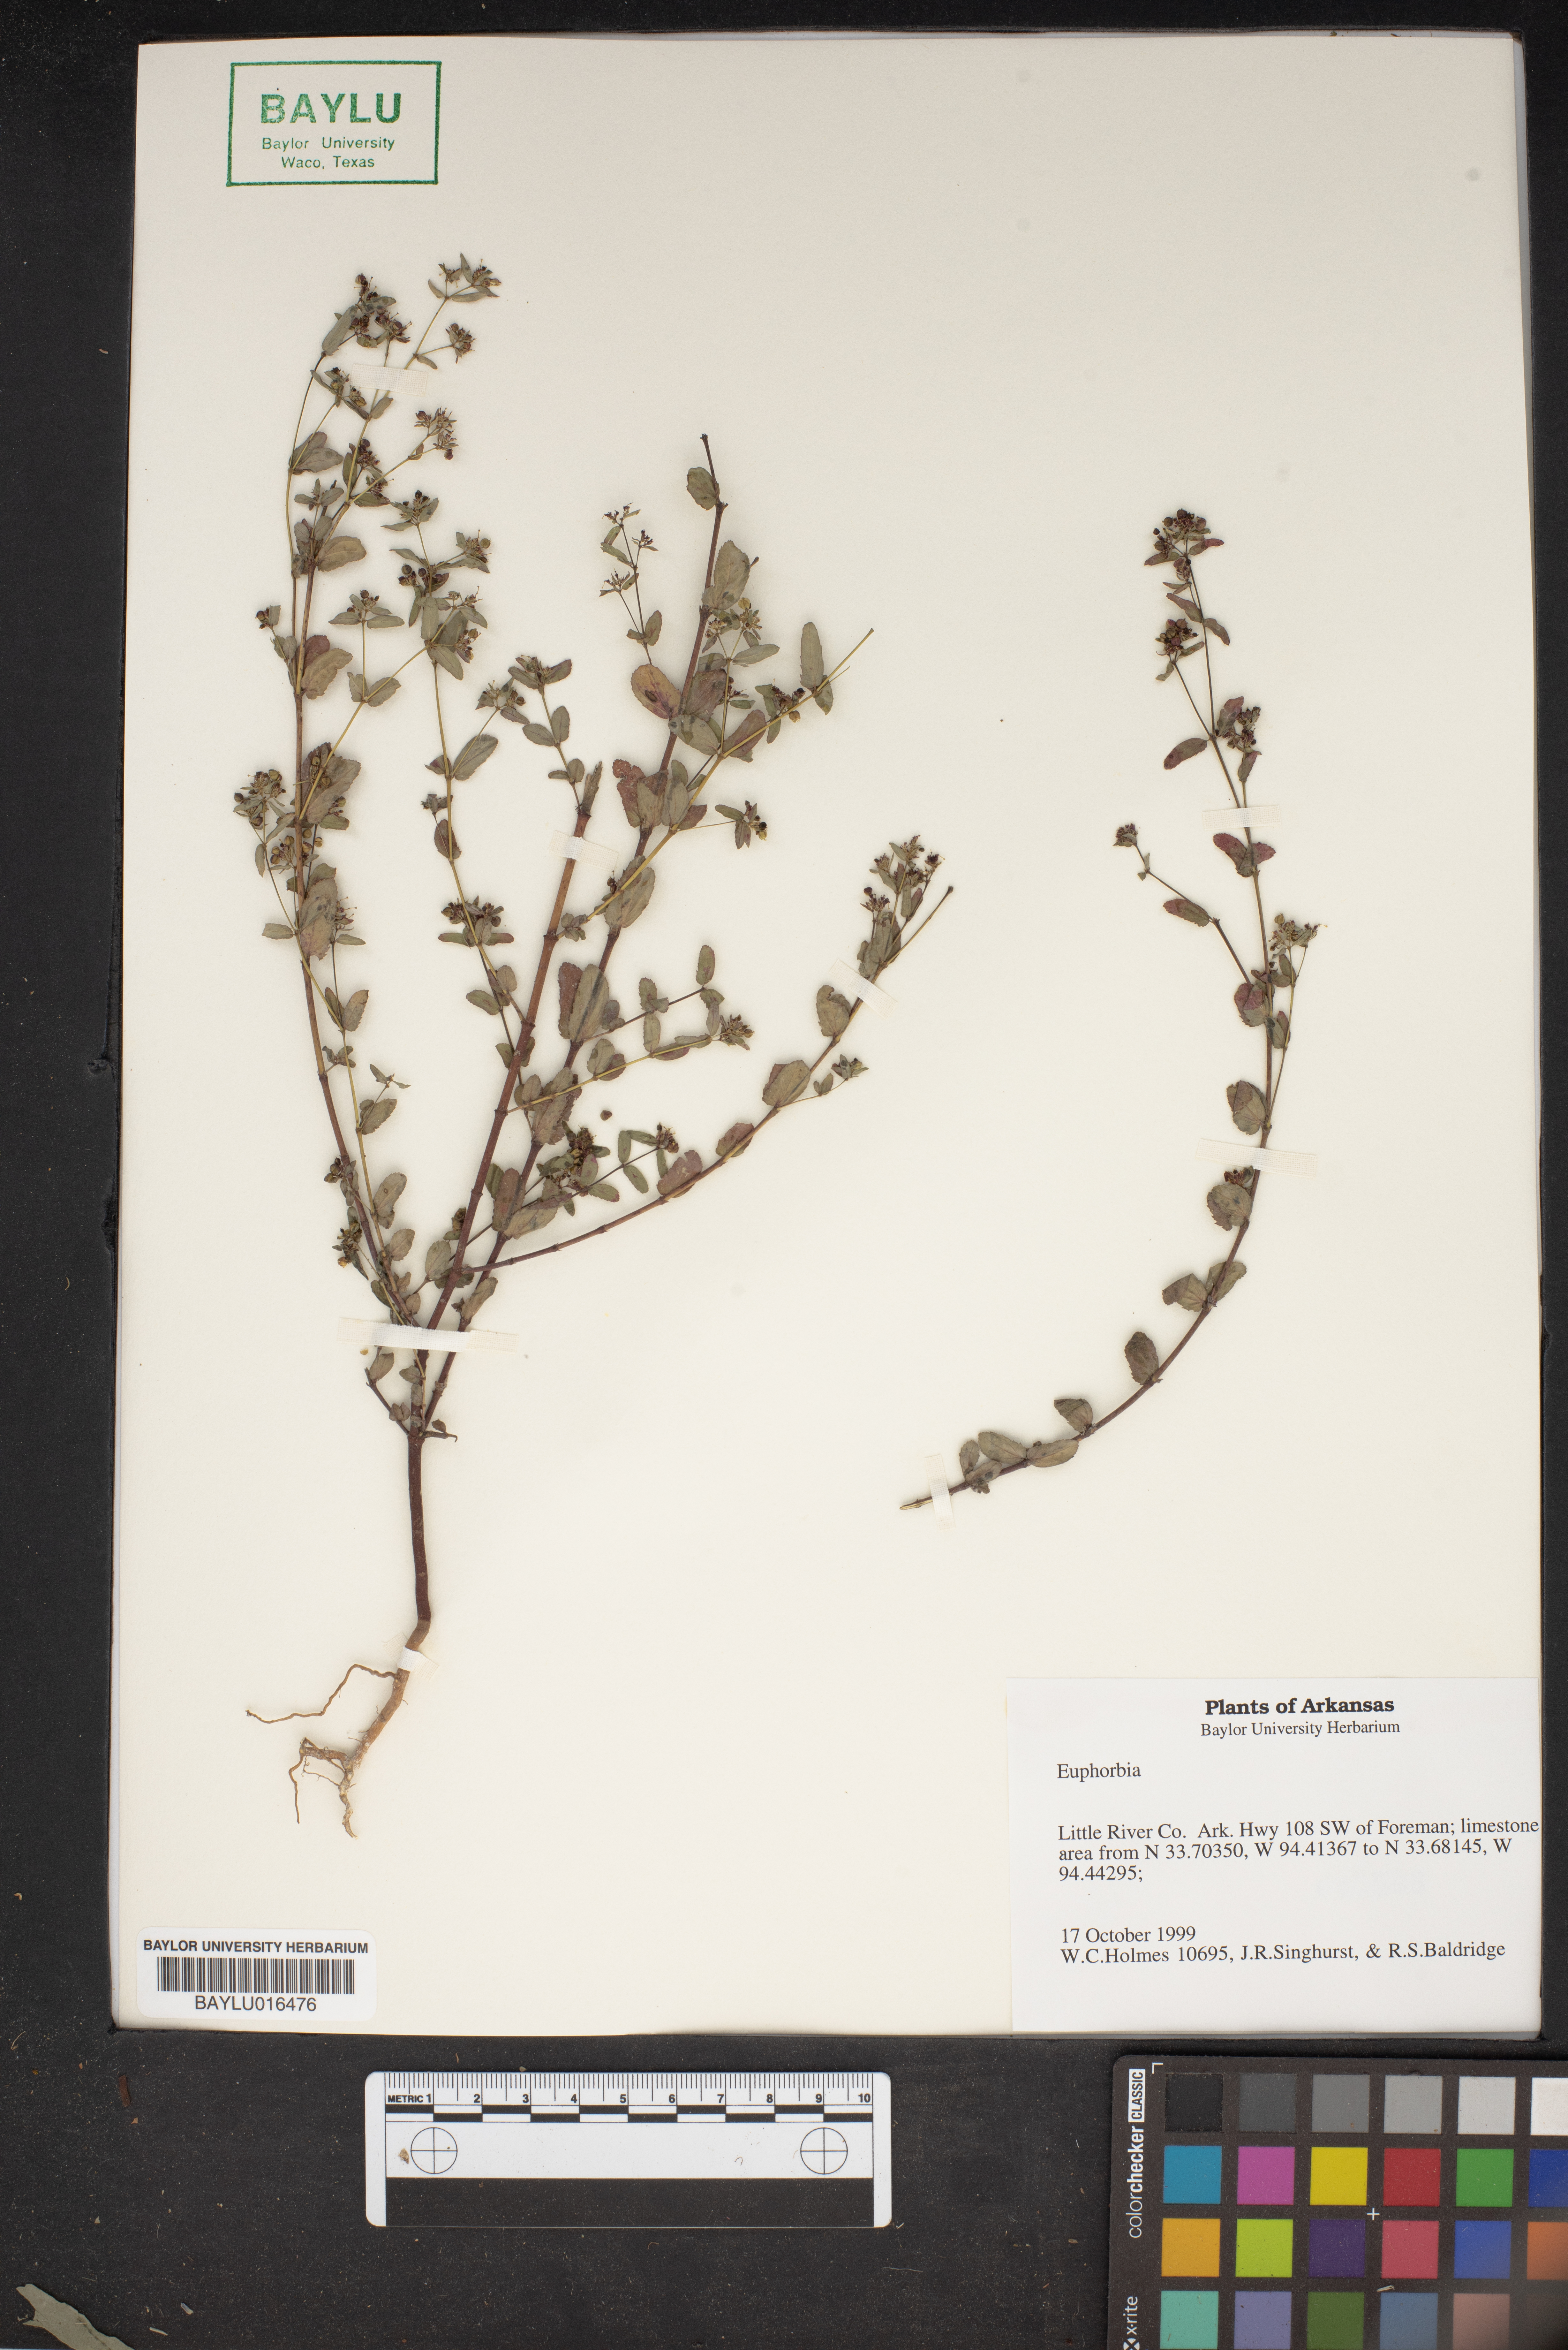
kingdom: Plantae
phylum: Tracheophyta
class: Magnoliopsida
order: Malpighiales
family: Euphorbiaceae
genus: Euphorbia
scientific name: Euphorbia
